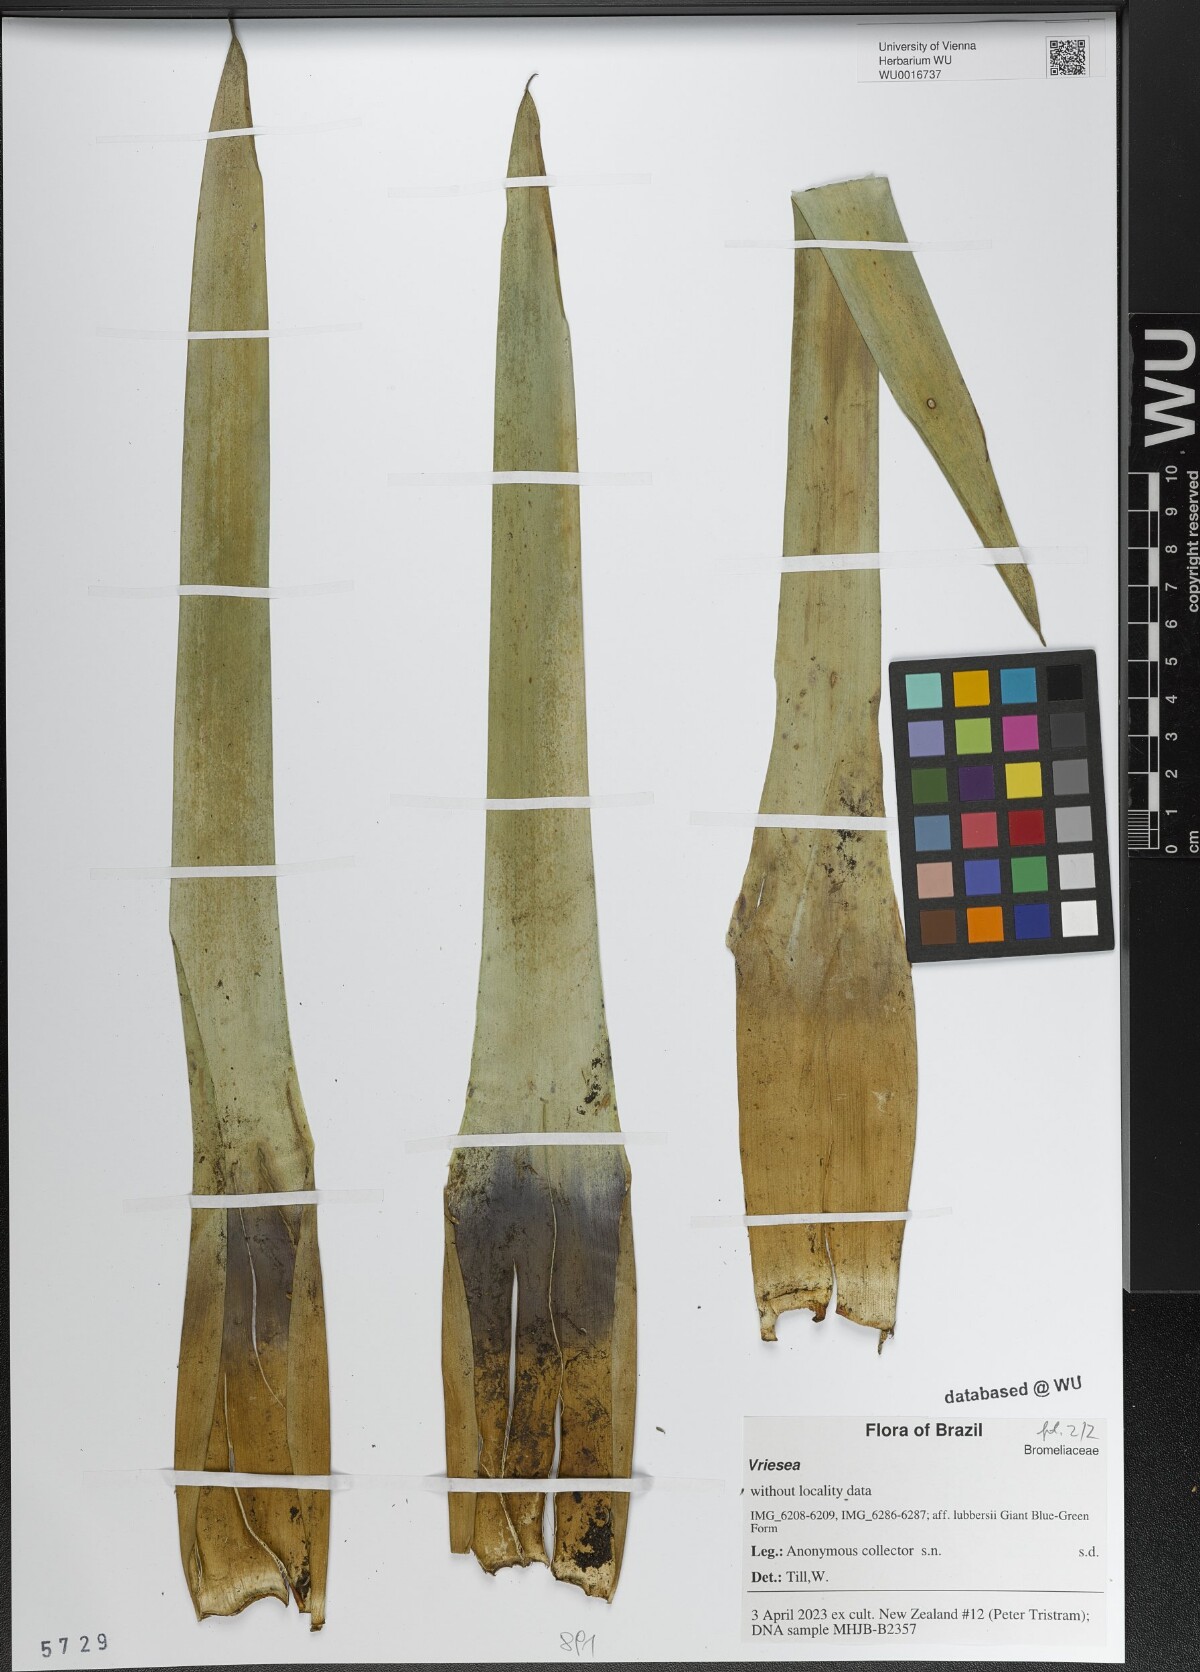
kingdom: Plantae
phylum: Tracheophyta
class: Liliopsida
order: Poales
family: Bromeliaceae
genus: Vriesea
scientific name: Vriesea
